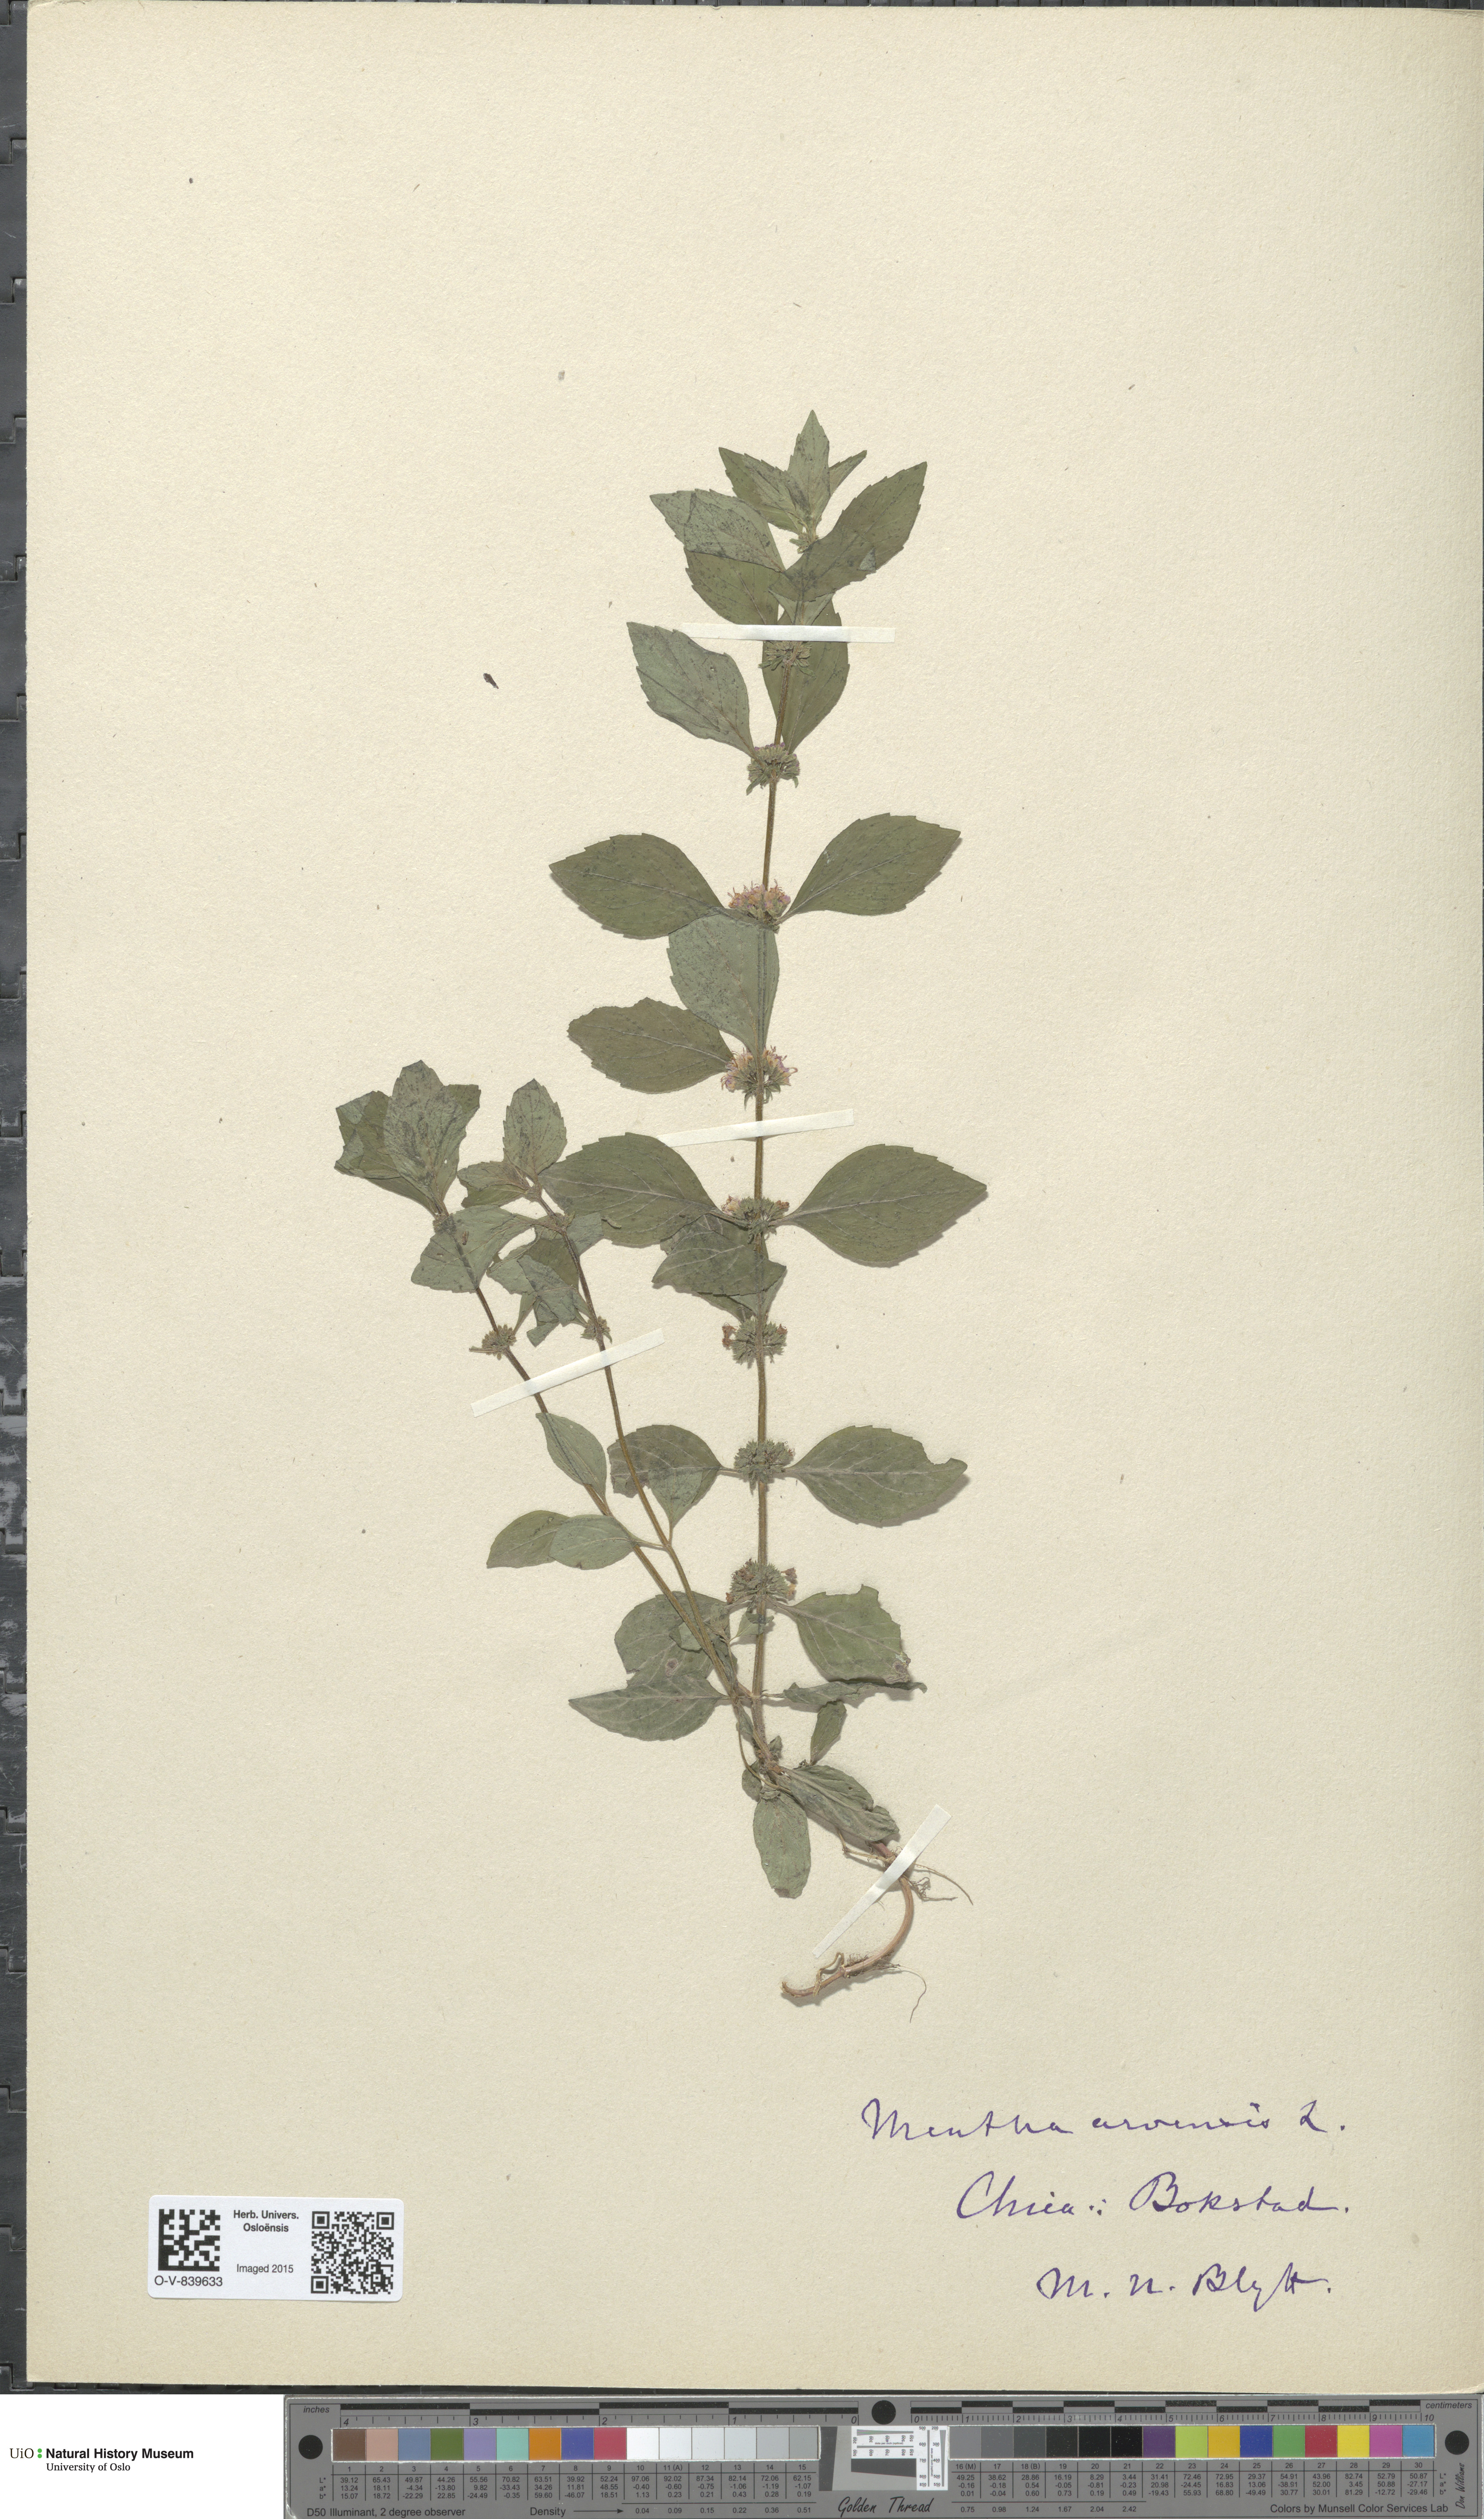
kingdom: Plantae
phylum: Tracheophyta
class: Magnoliopsida
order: Lamiales
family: Lamiaceae
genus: Mentha
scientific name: Mentha arvensis
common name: Corn mint
